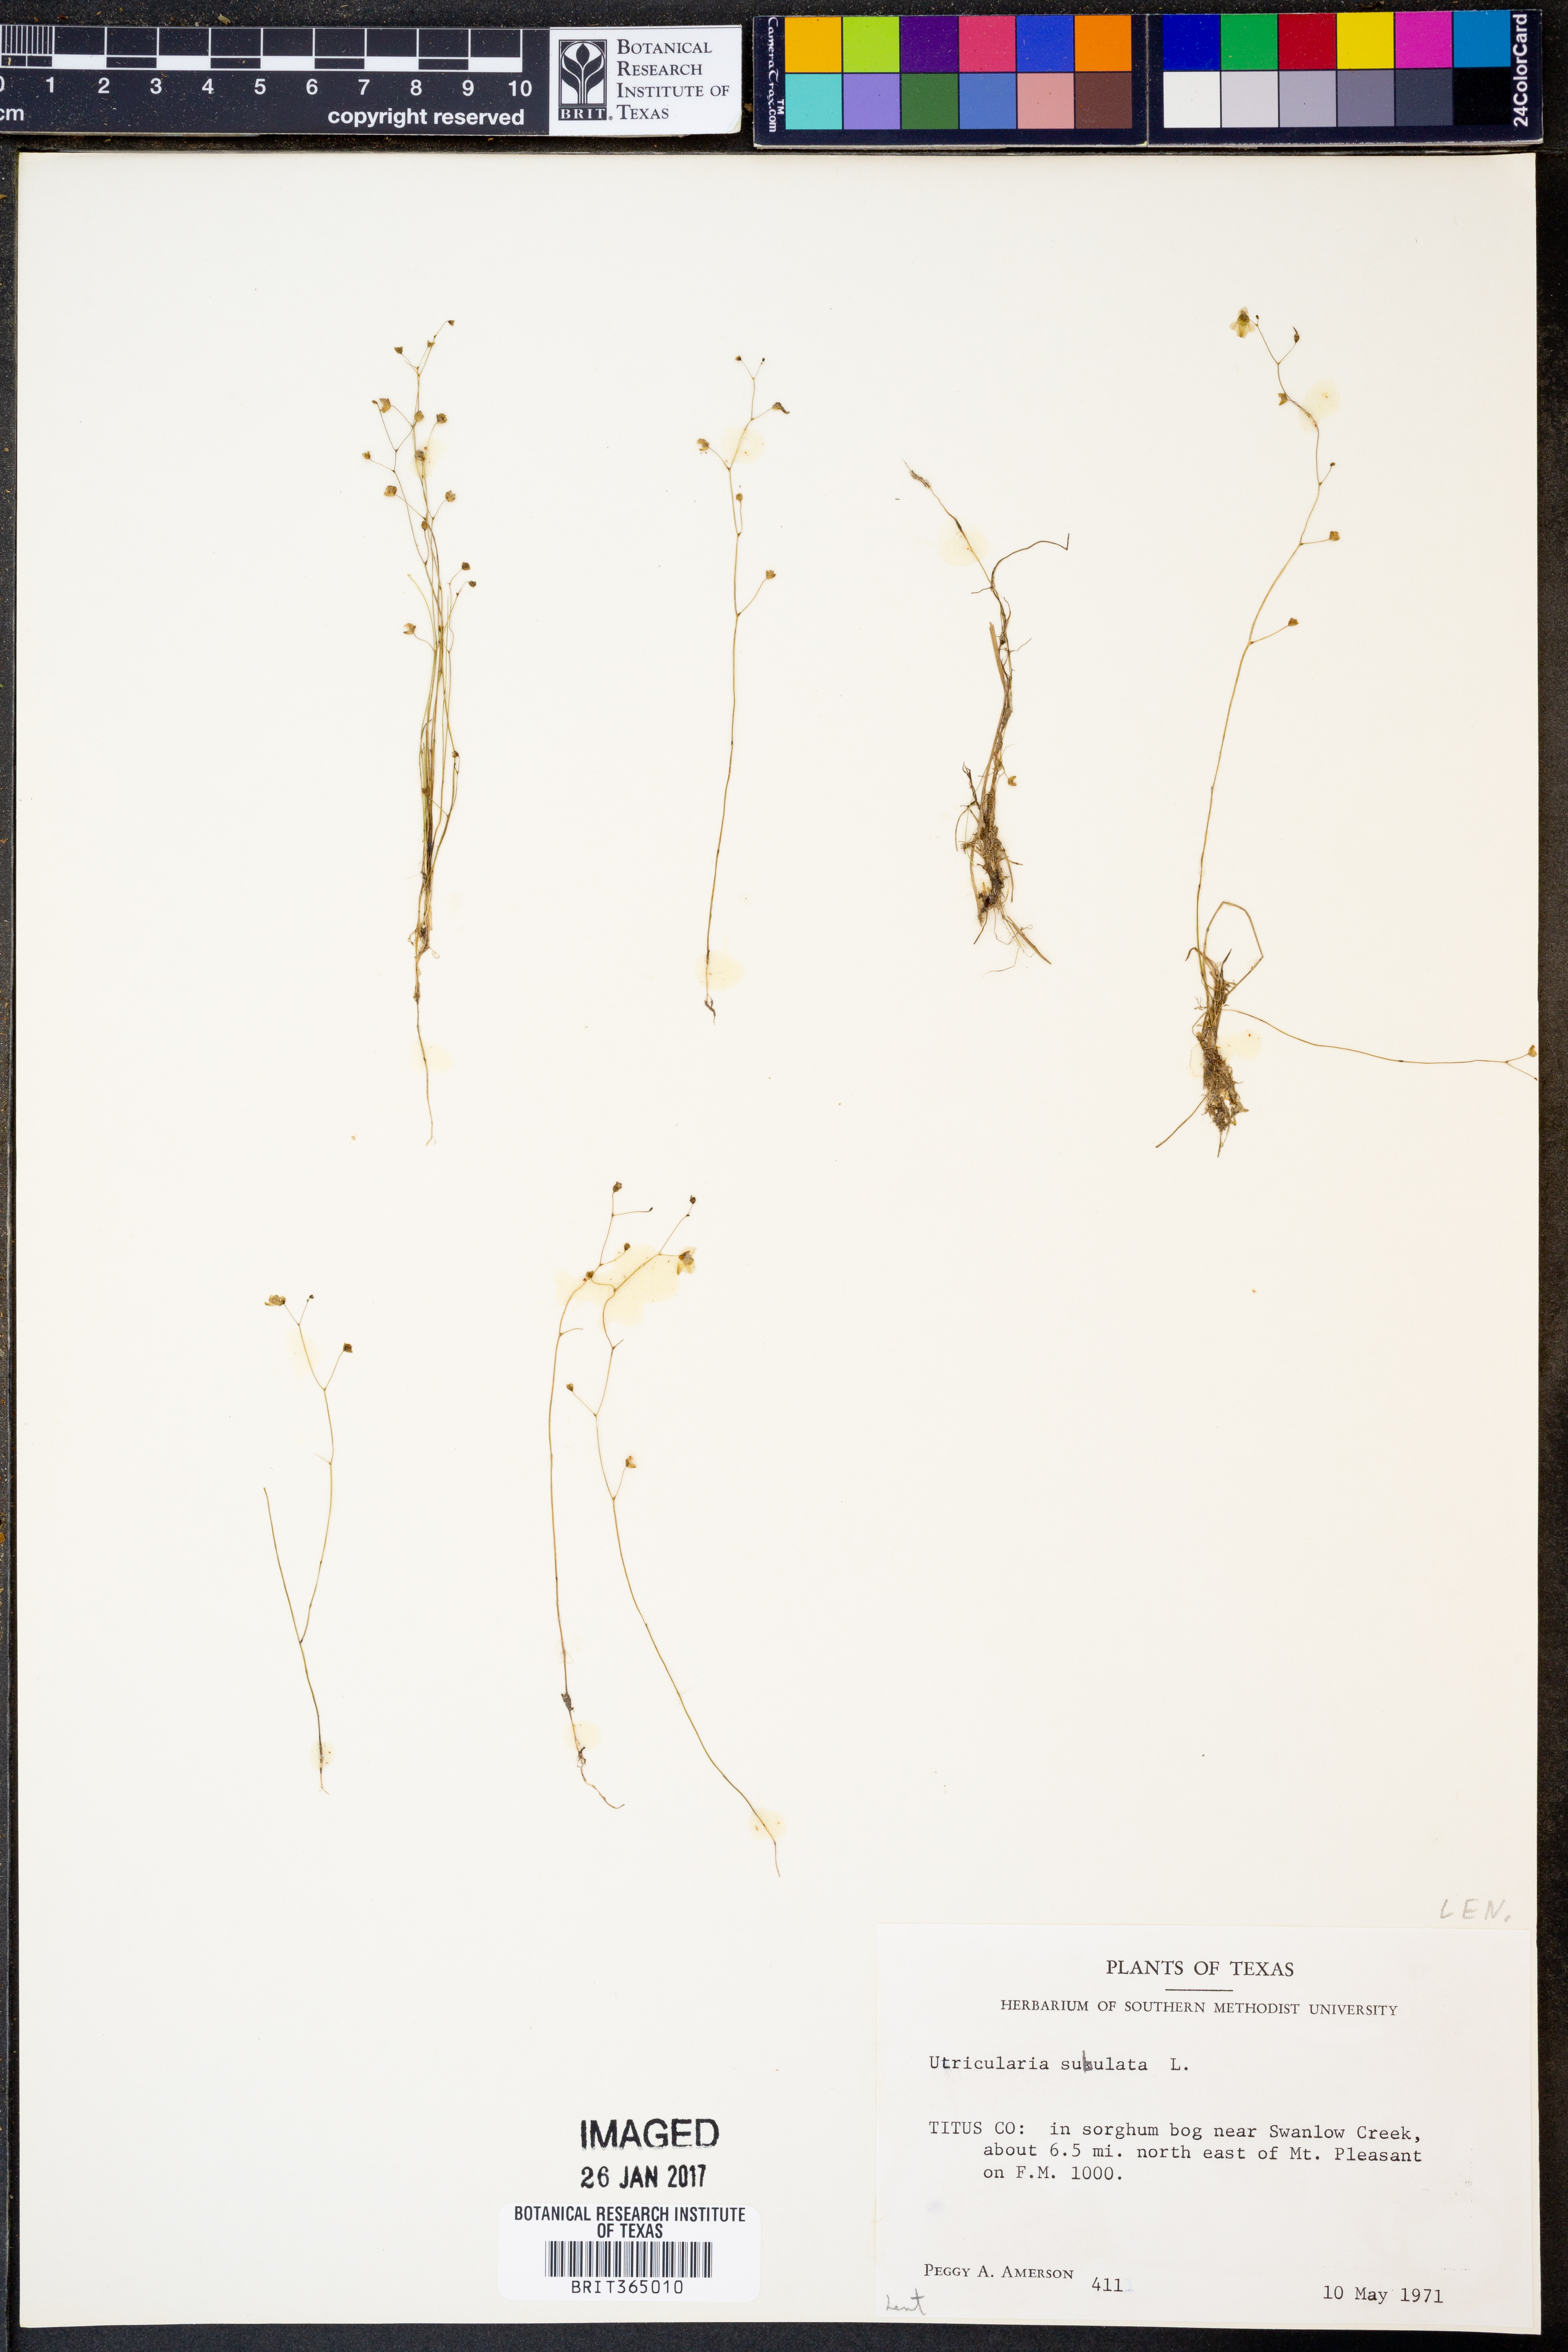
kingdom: Plantae
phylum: Tracheophyta
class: Magnoliopsida
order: Lamiales
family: Lentibulariaceae
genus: Utricularia
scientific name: Utricularia subulata
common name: Tiny bladderwort
